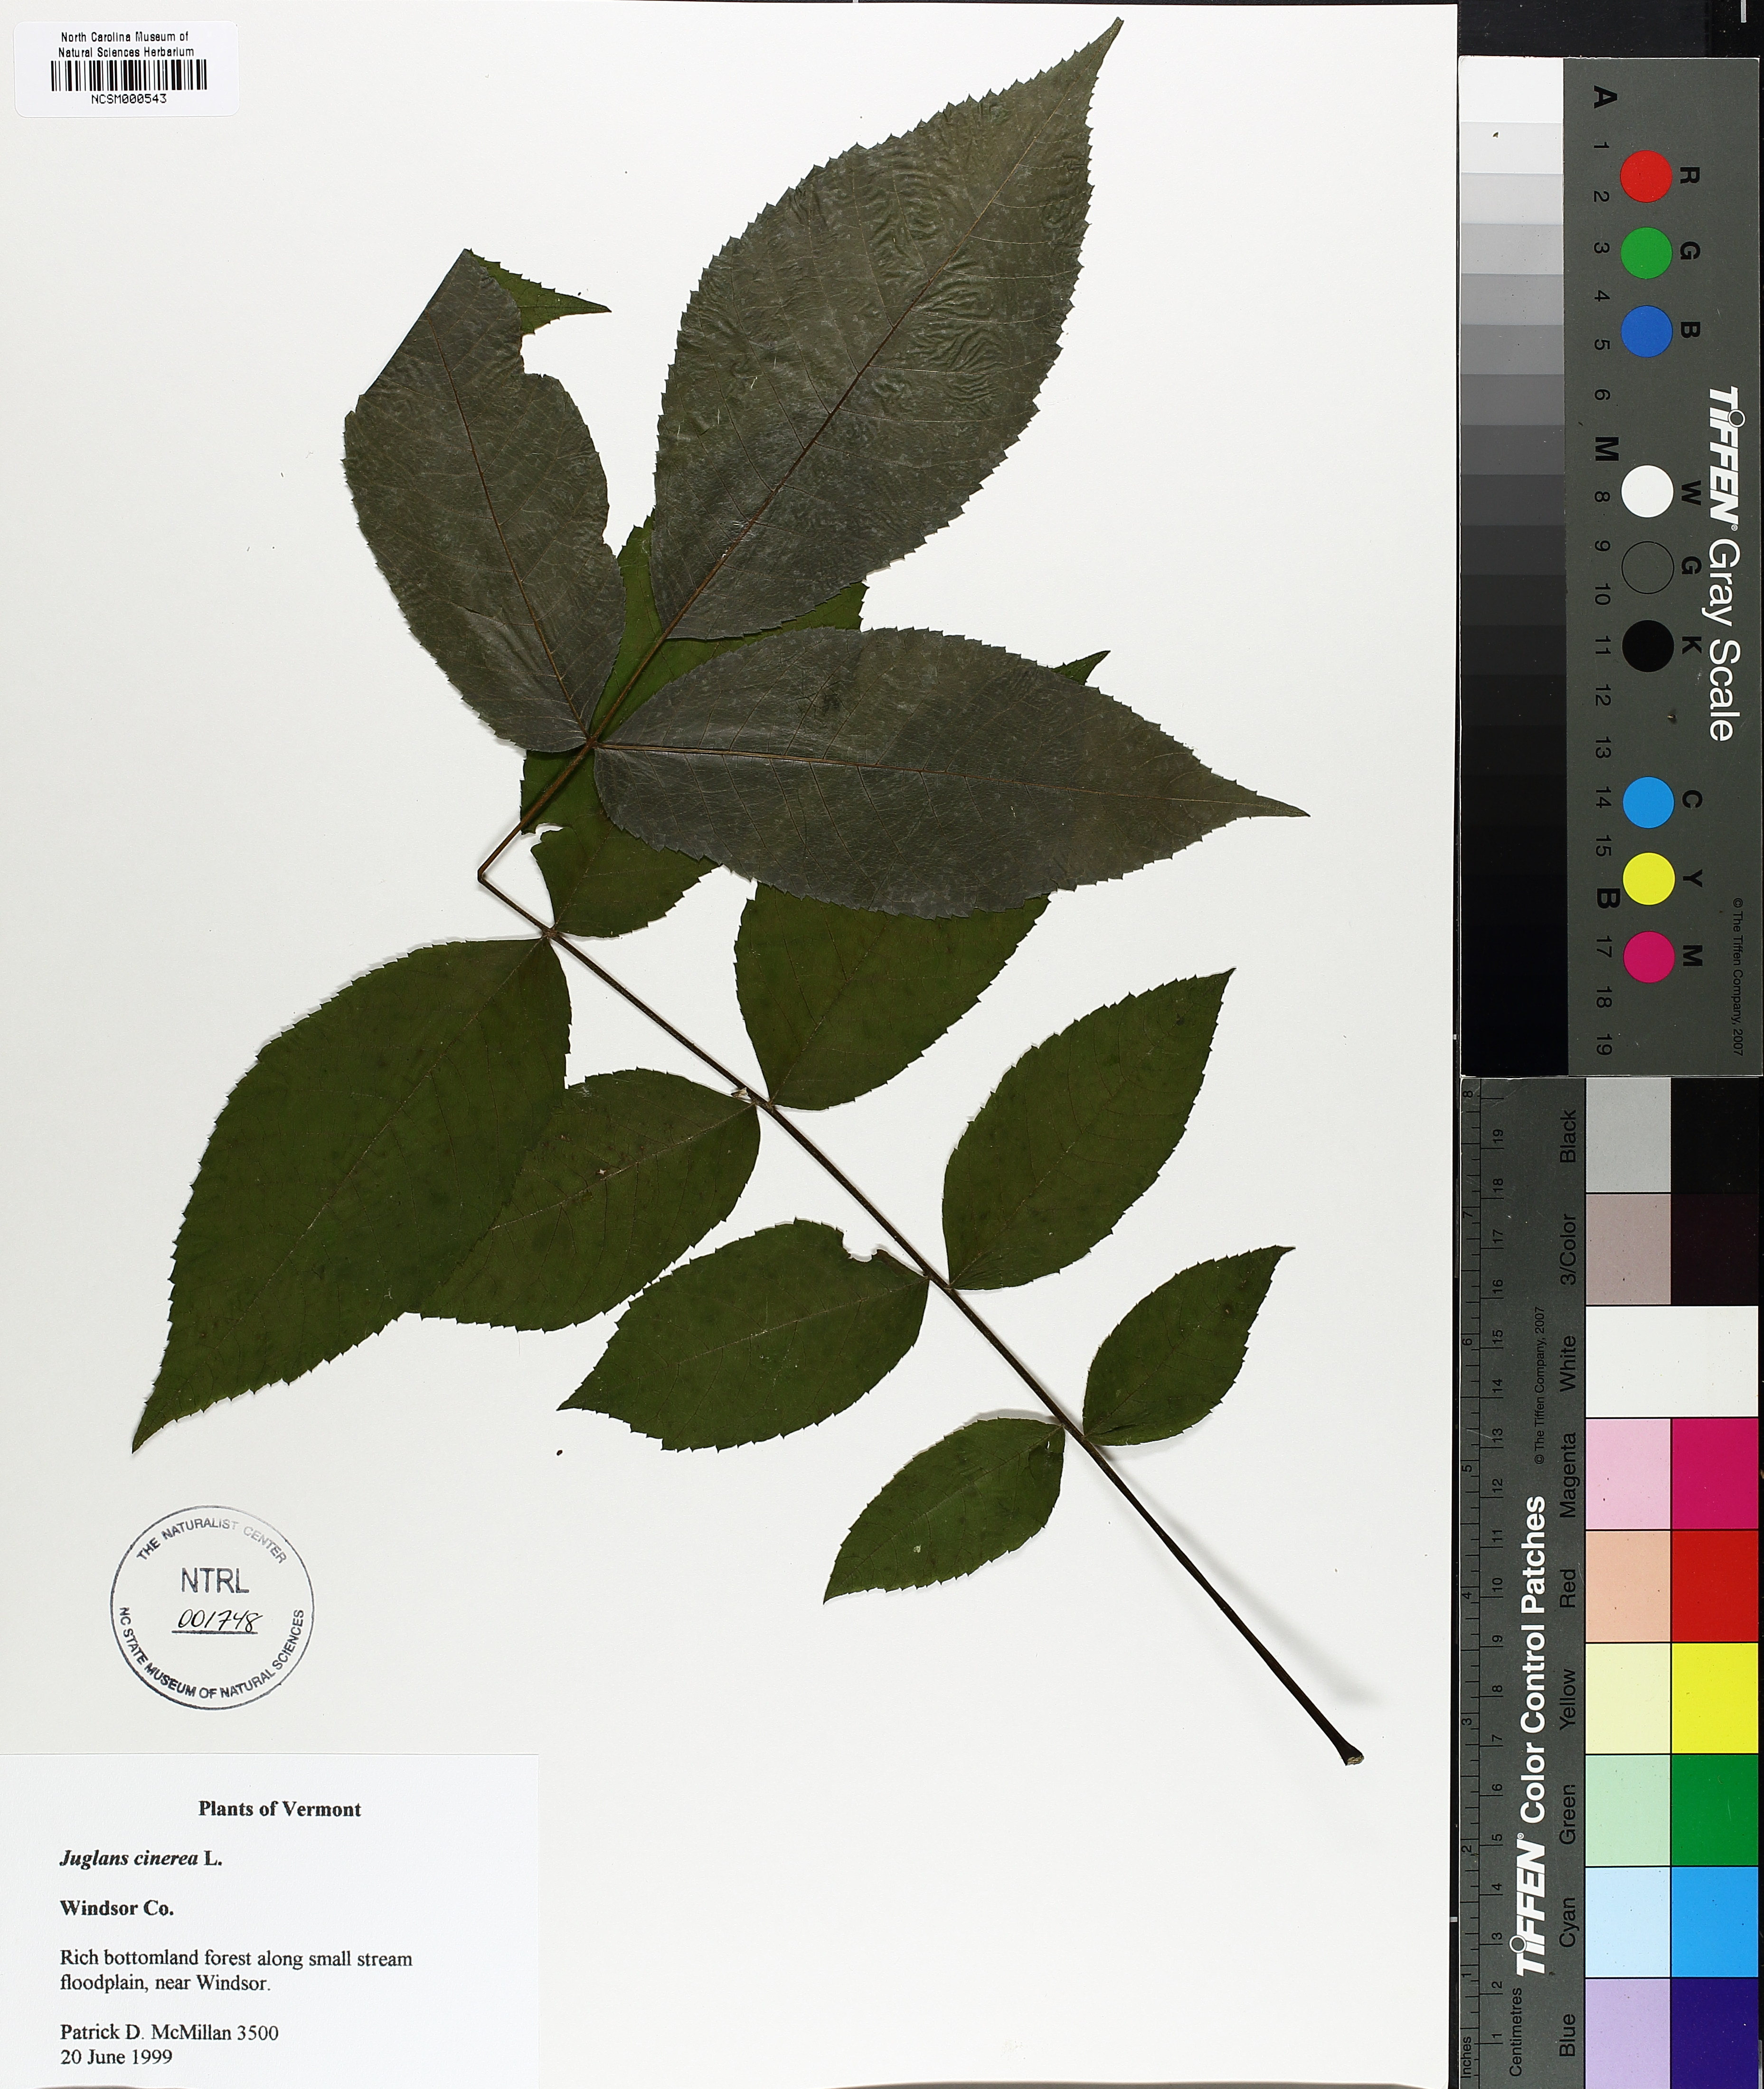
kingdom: Plantae
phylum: Tracheophyta
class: Magnoliopsida
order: Fagales
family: Juglandaceae
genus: Juglans
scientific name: Juglans cinerea
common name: Butternut
